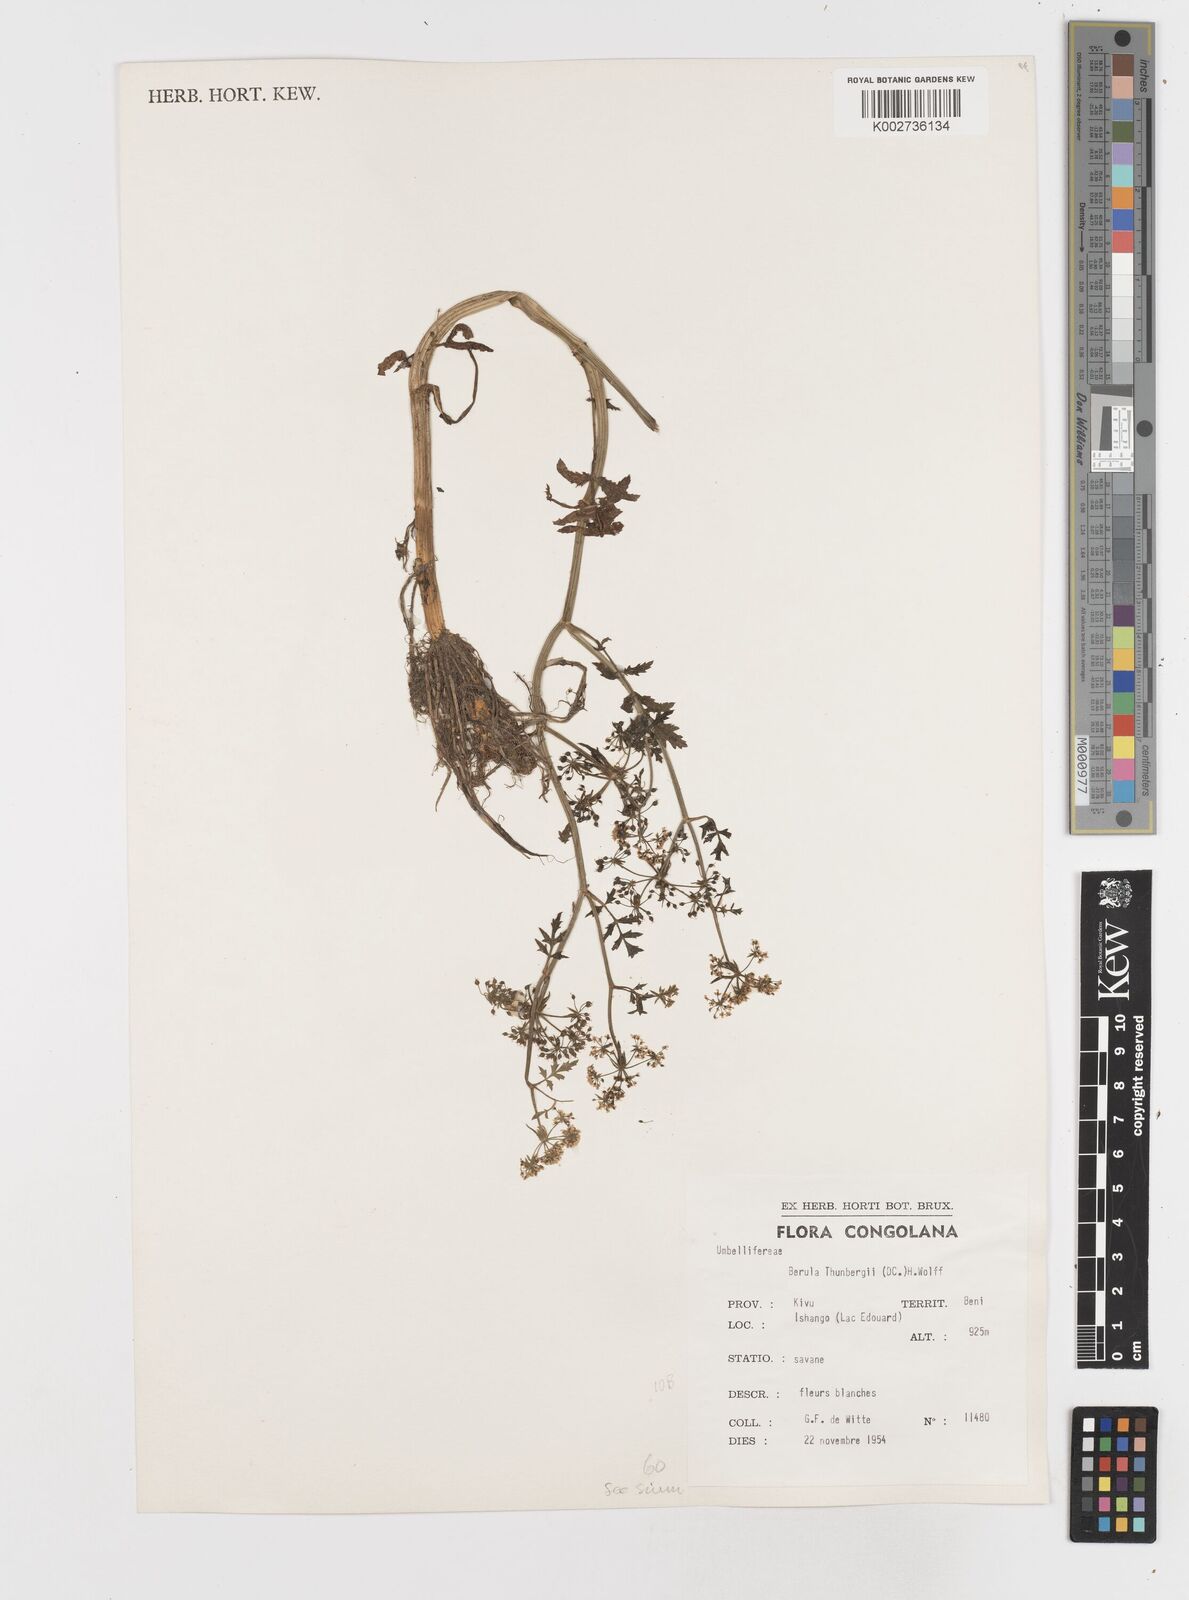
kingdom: Plantae
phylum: Tracheophyta
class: Magnoliopsida
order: Apiales
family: Apiaceae
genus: Berula
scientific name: Berula erecta
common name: Lesser water-parsnip
